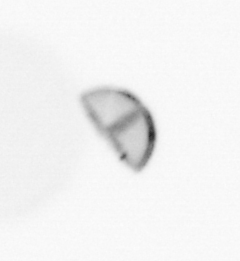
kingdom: Chromista
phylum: Ochrophyta
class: Bacillariophyceae
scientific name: Bacillariophyceae
